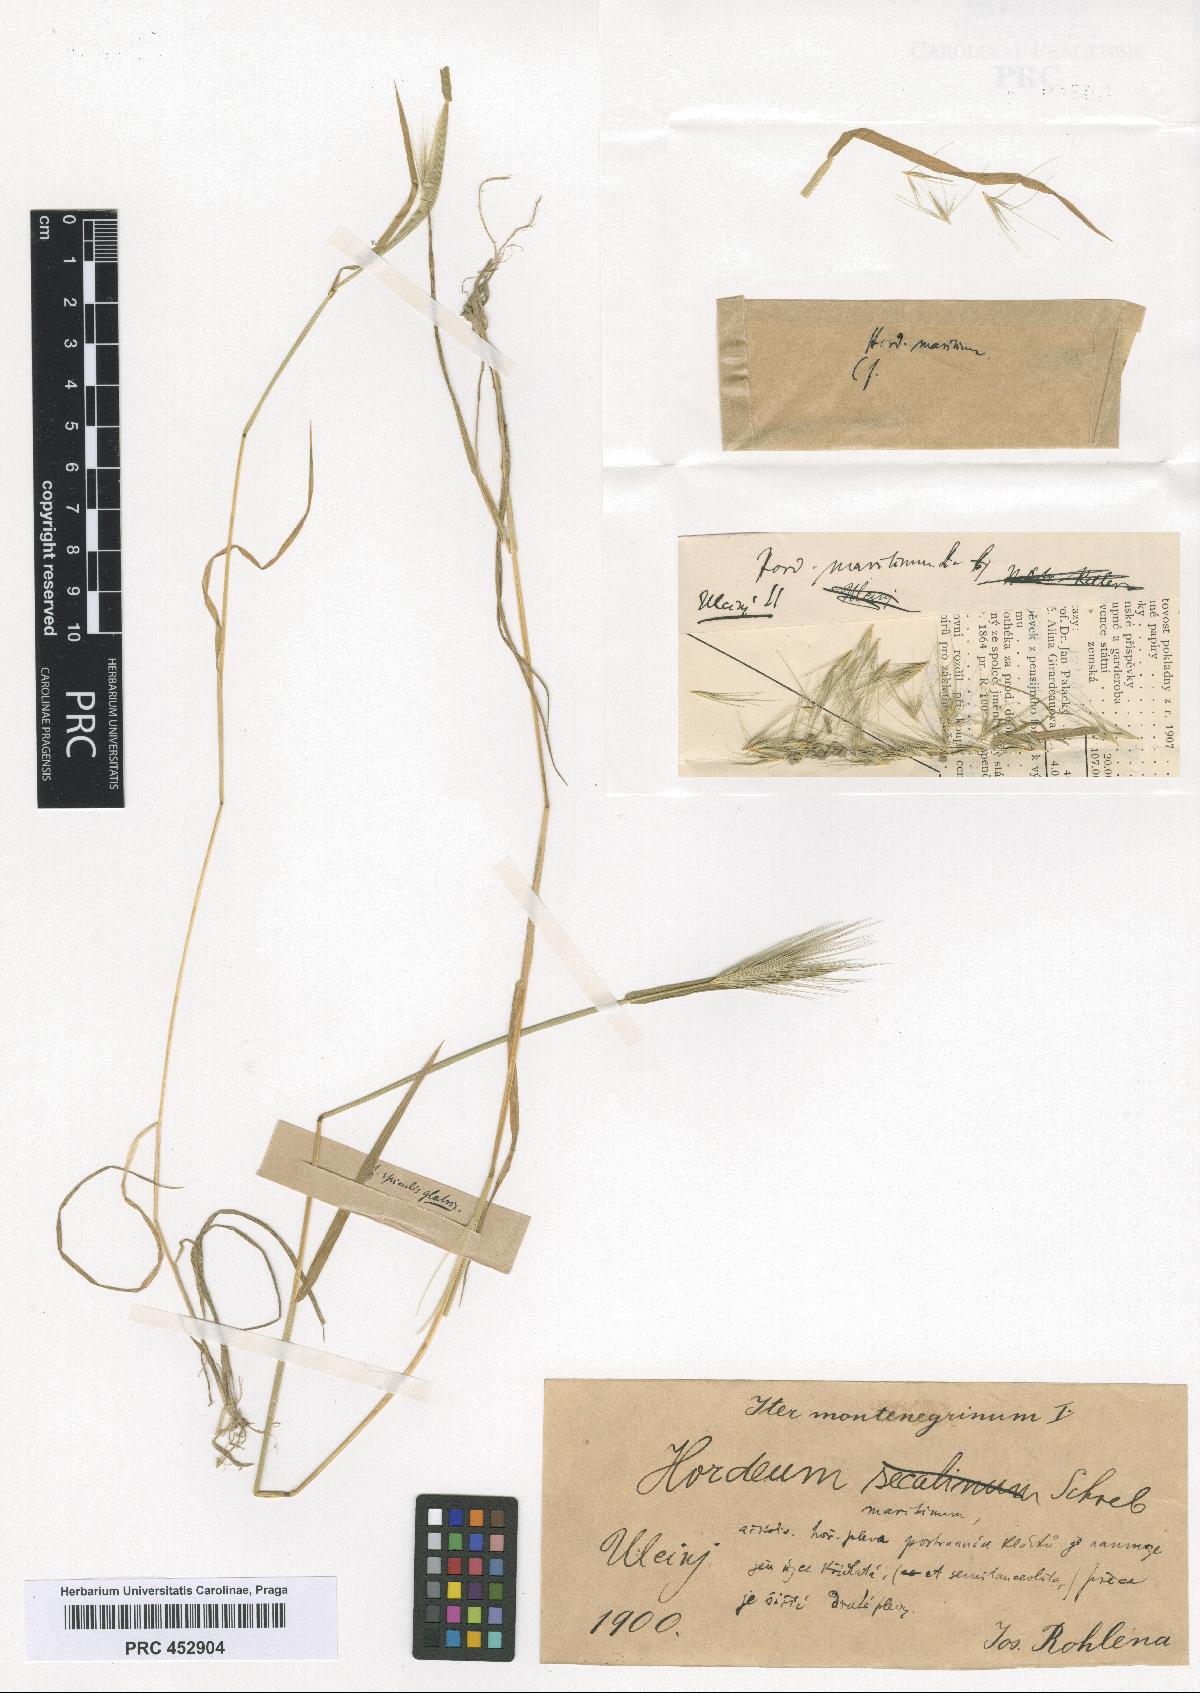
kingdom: Plantae
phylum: Tracheophyta
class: Liliopsida
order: Poales
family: Poaceae
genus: Hordeum
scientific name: Hordeum secalinum
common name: Meadow barley
